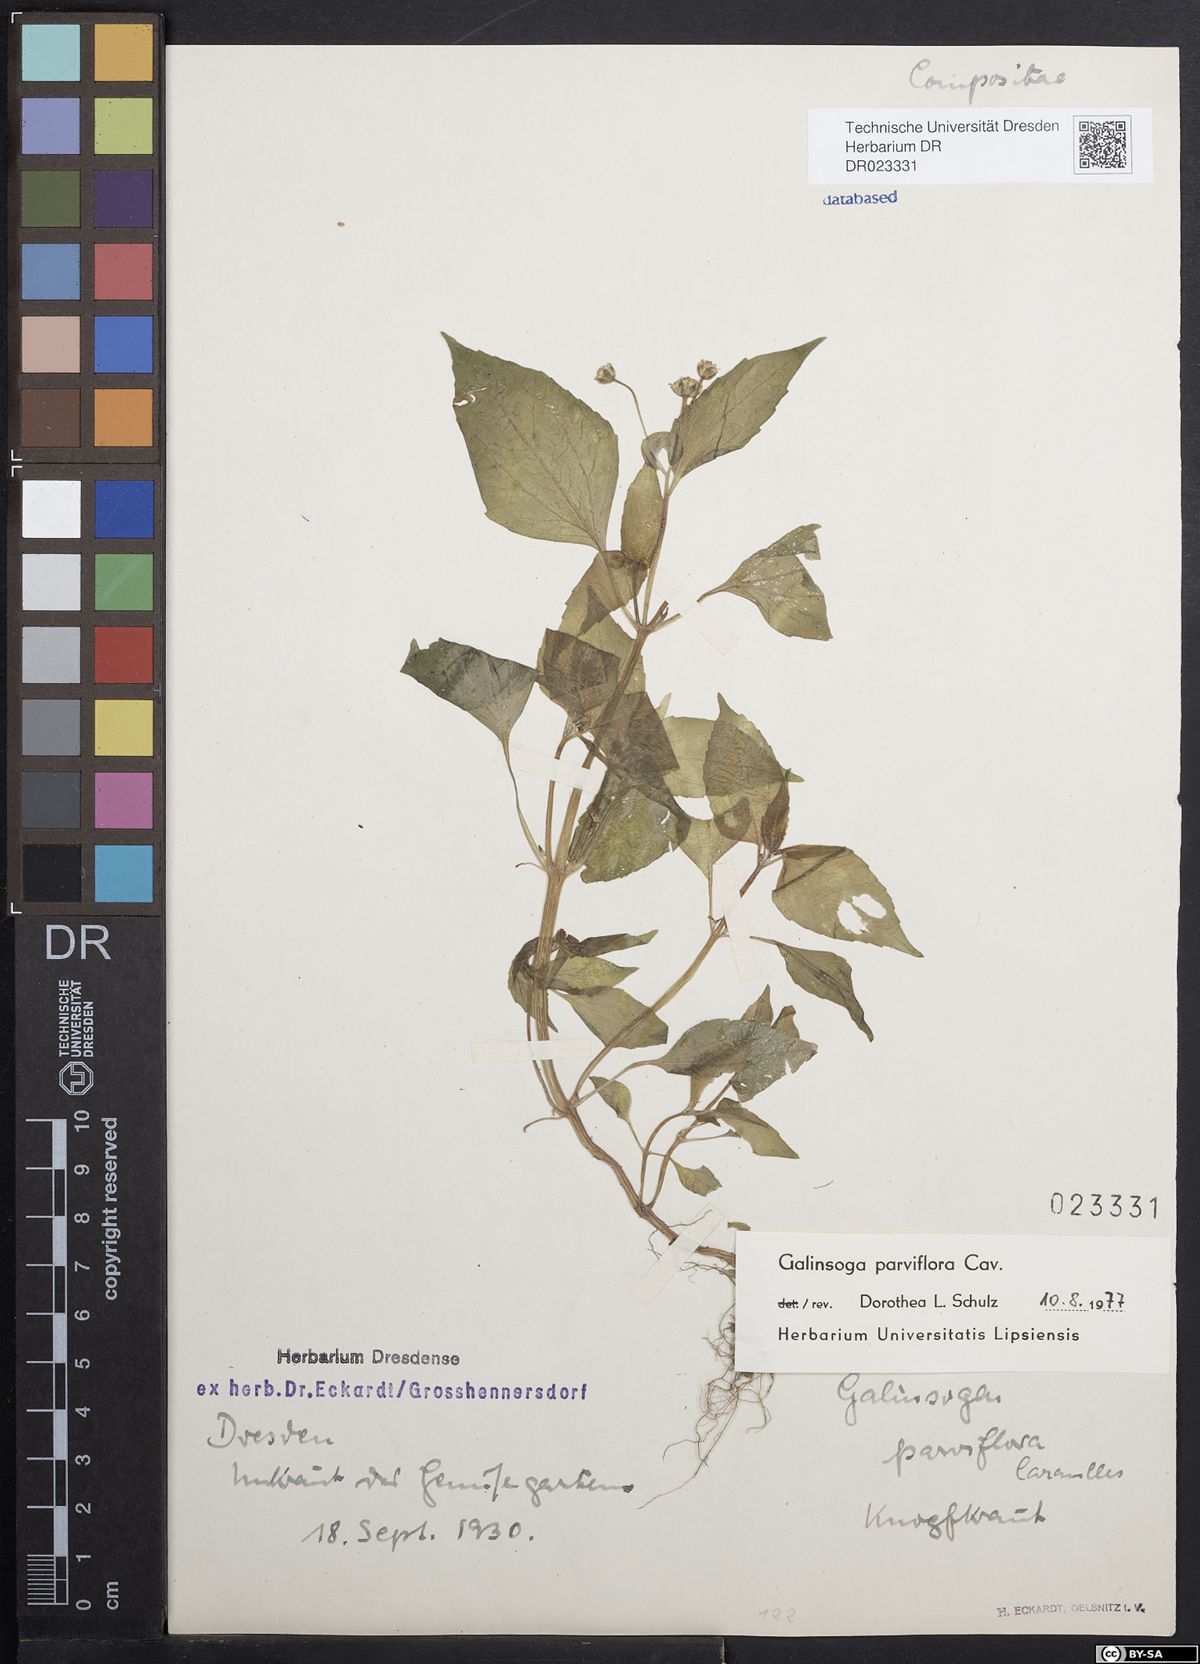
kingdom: Plantae
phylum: Tracheophyta
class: Magnoliopsida
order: Asterales
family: Asteraceae
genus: Galinsoga
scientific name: Galinsoga parviflora
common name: Gallant soldier
